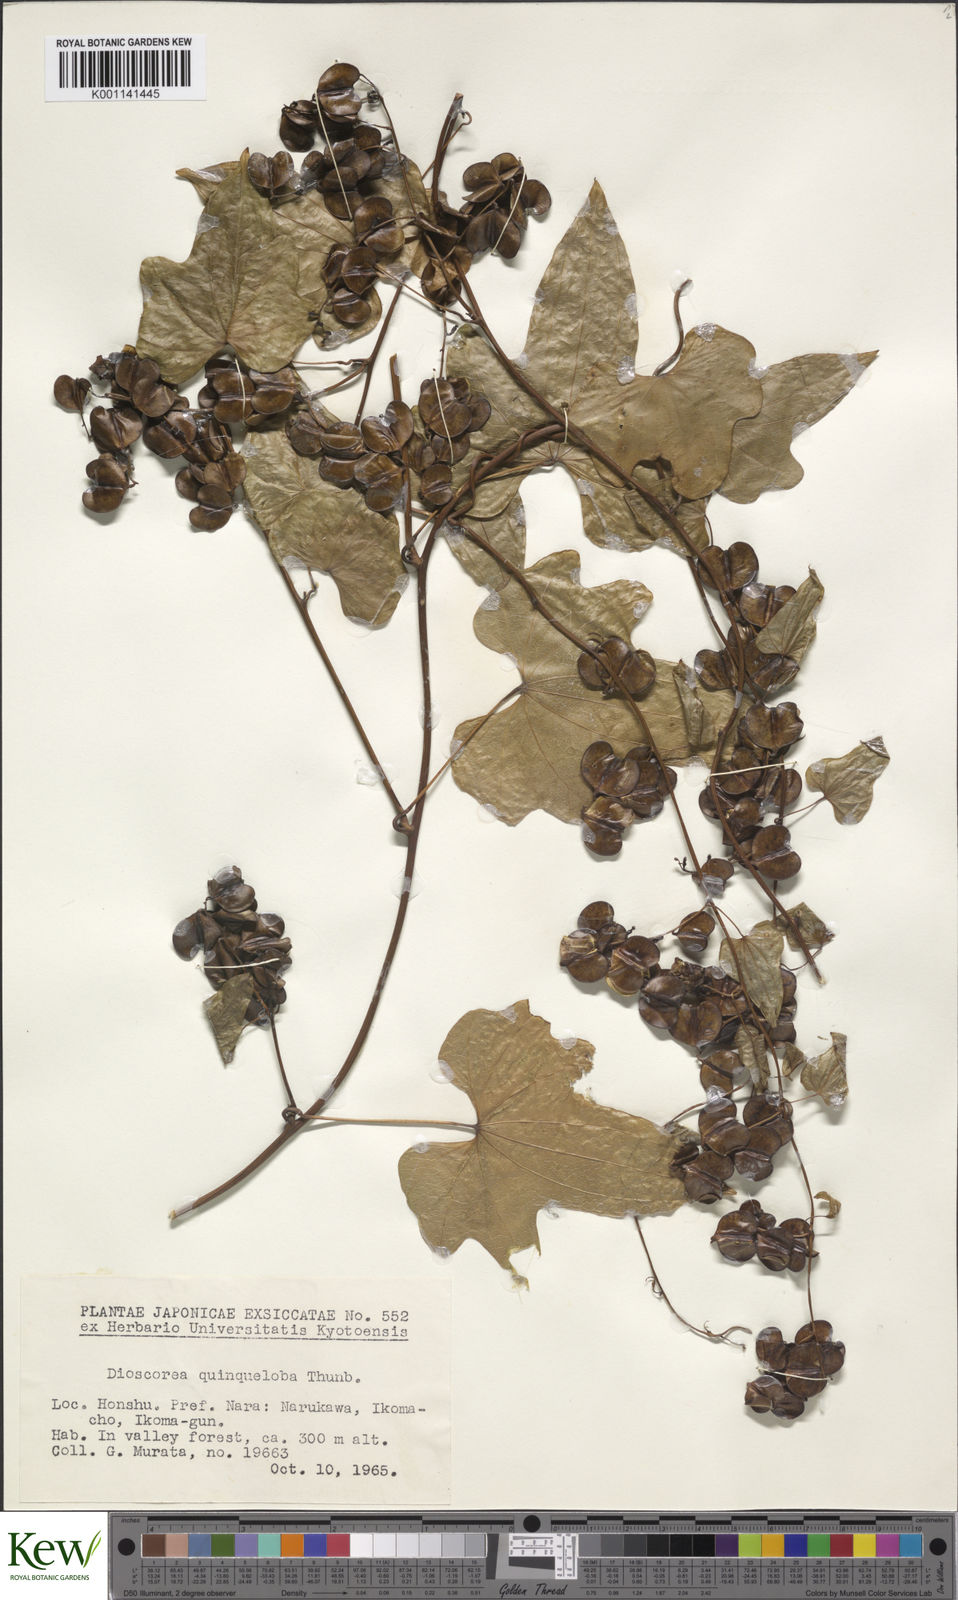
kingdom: Plantae
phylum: Tracheophyta
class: Liliopsida
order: Dioscoreales
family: Dioscoreaceae
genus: Dioscorea
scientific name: Dioscorea quinquelobata
